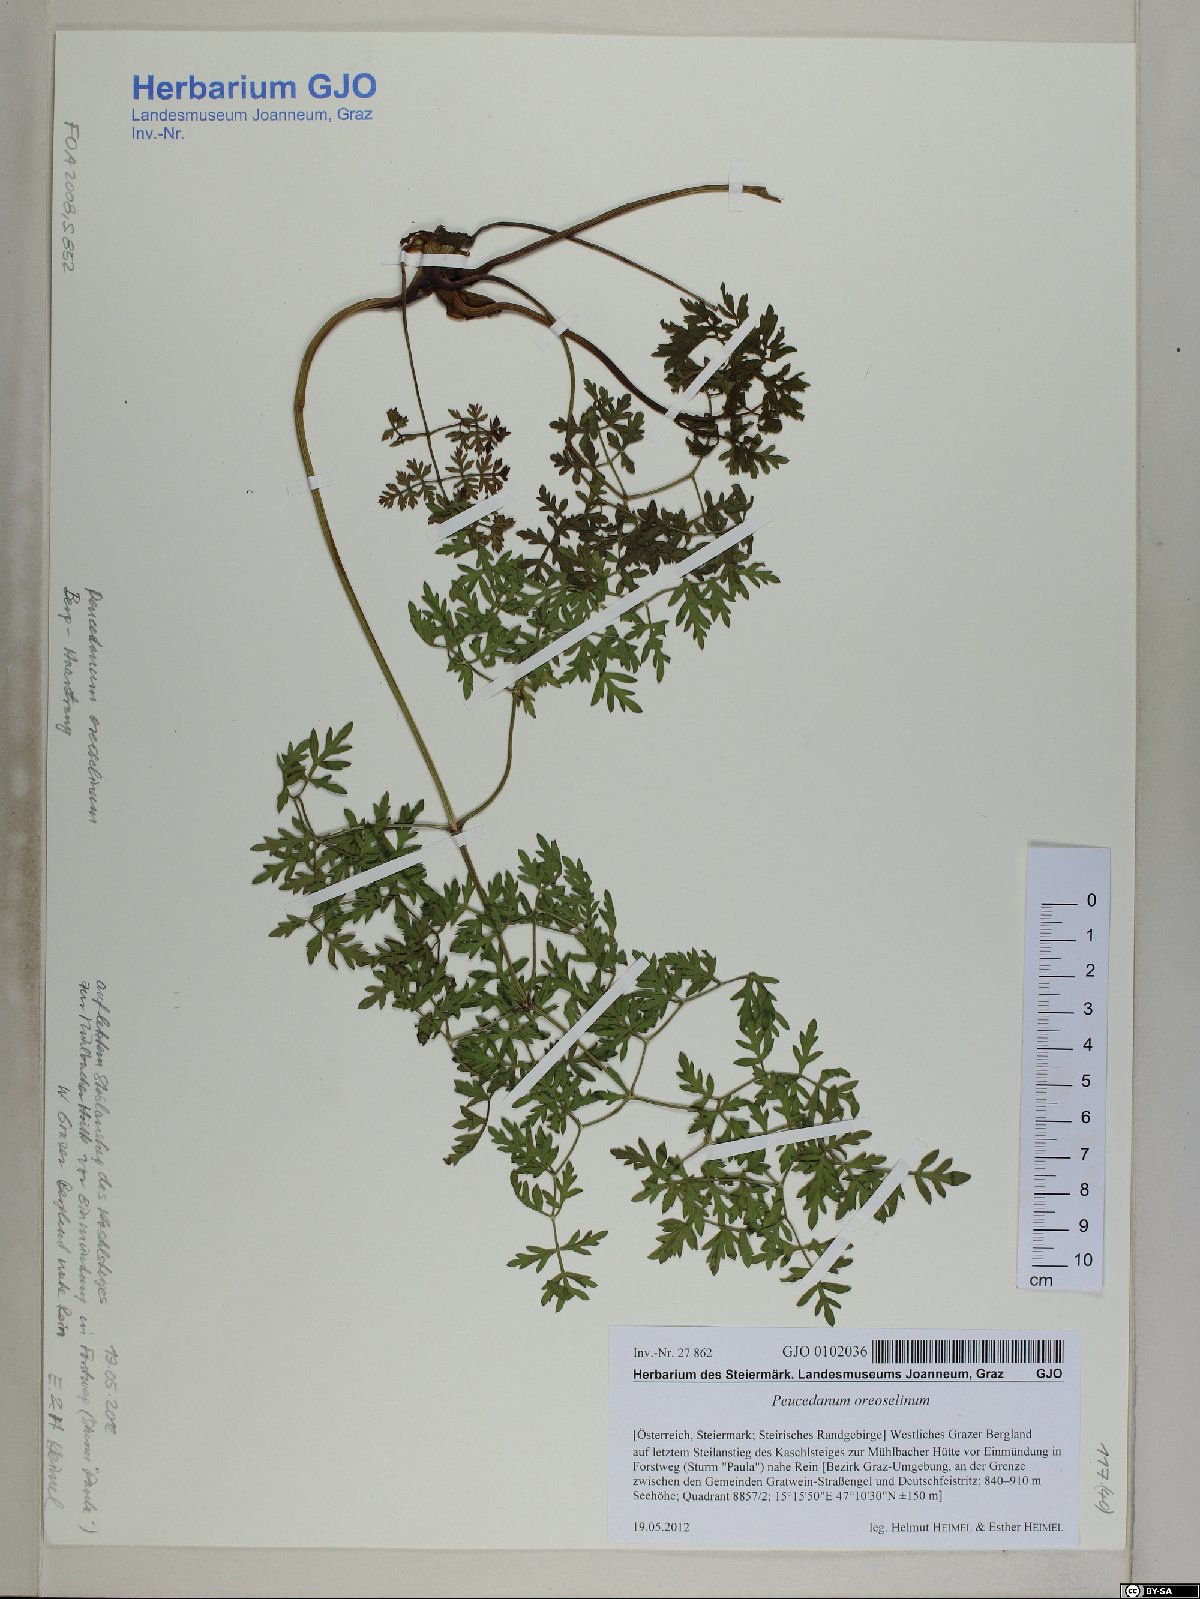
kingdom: Plantae
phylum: Tracheophyta
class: Magnoliopsida
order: Apiales
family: Apiaceae
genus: Oreoselinum
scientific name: Oreoselinum nigrum
